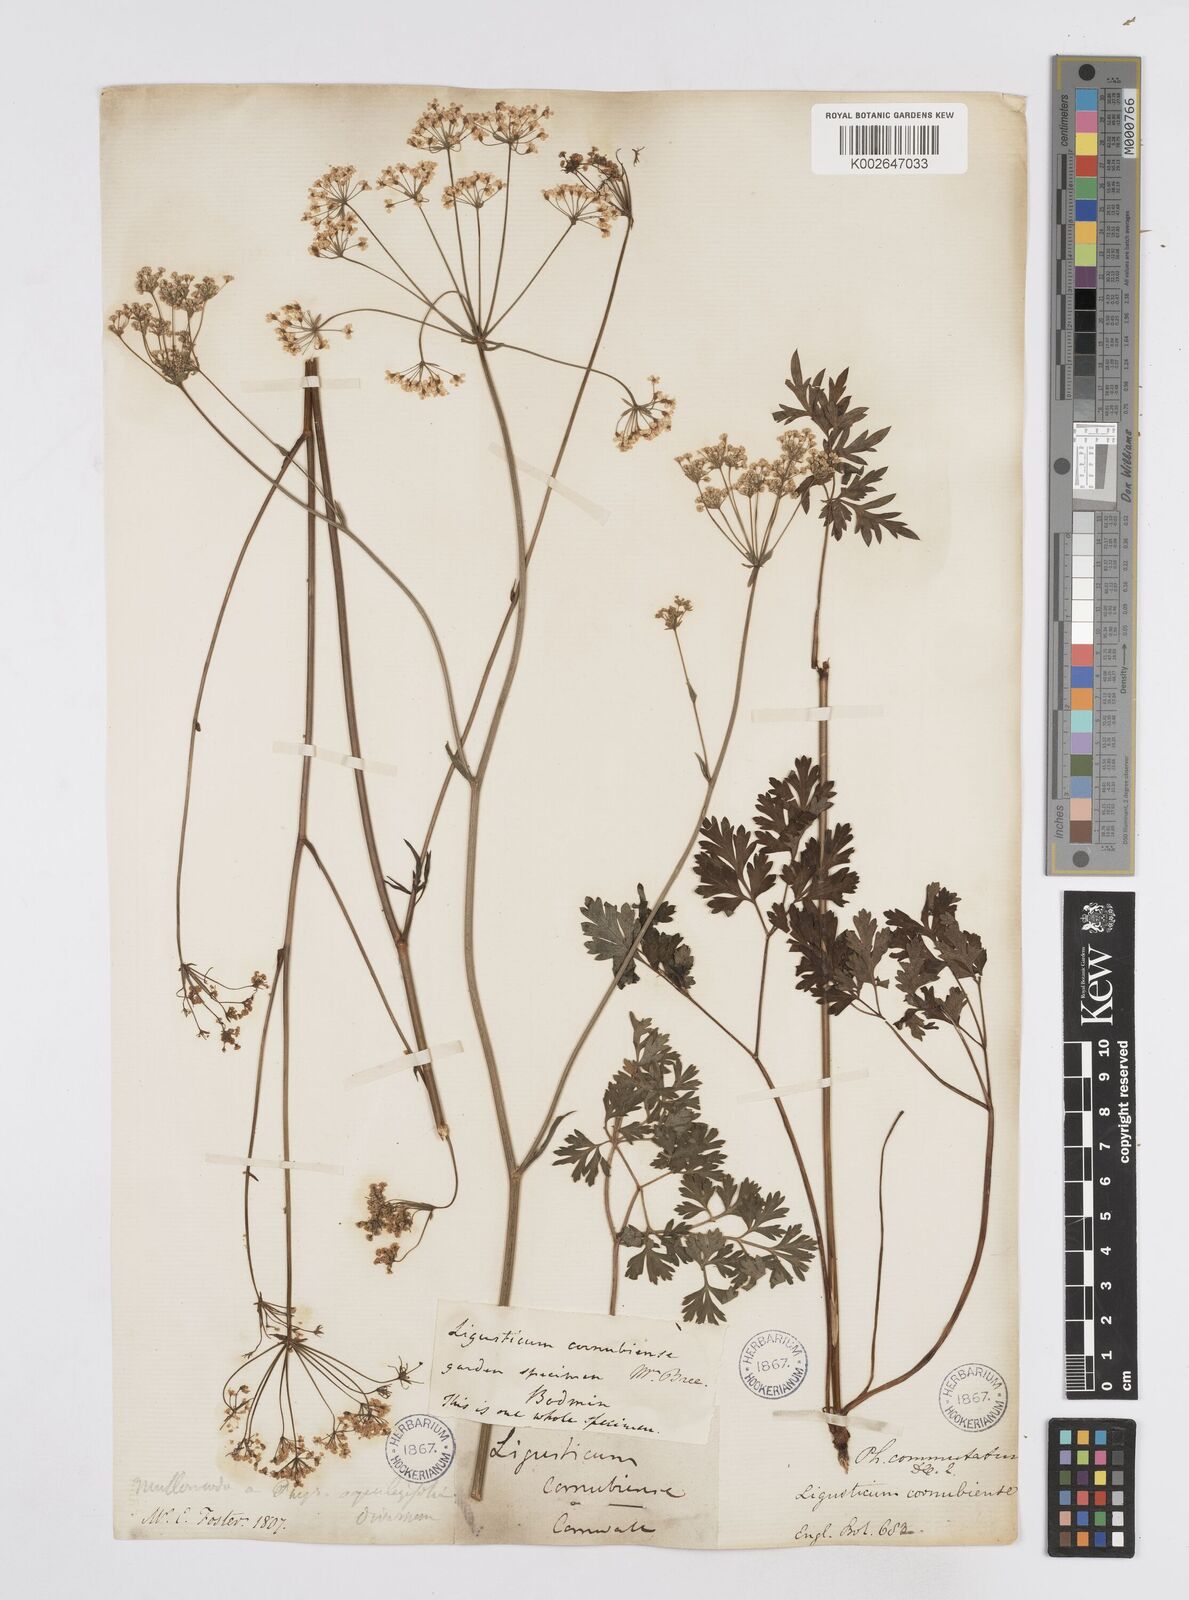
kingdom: Plantae
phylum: Tracheophyta
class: Magnoliopsida
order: Apiales
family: Apiaceae
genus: Physospermum
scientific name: Physospermum cornubiense
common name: Bladderseed
